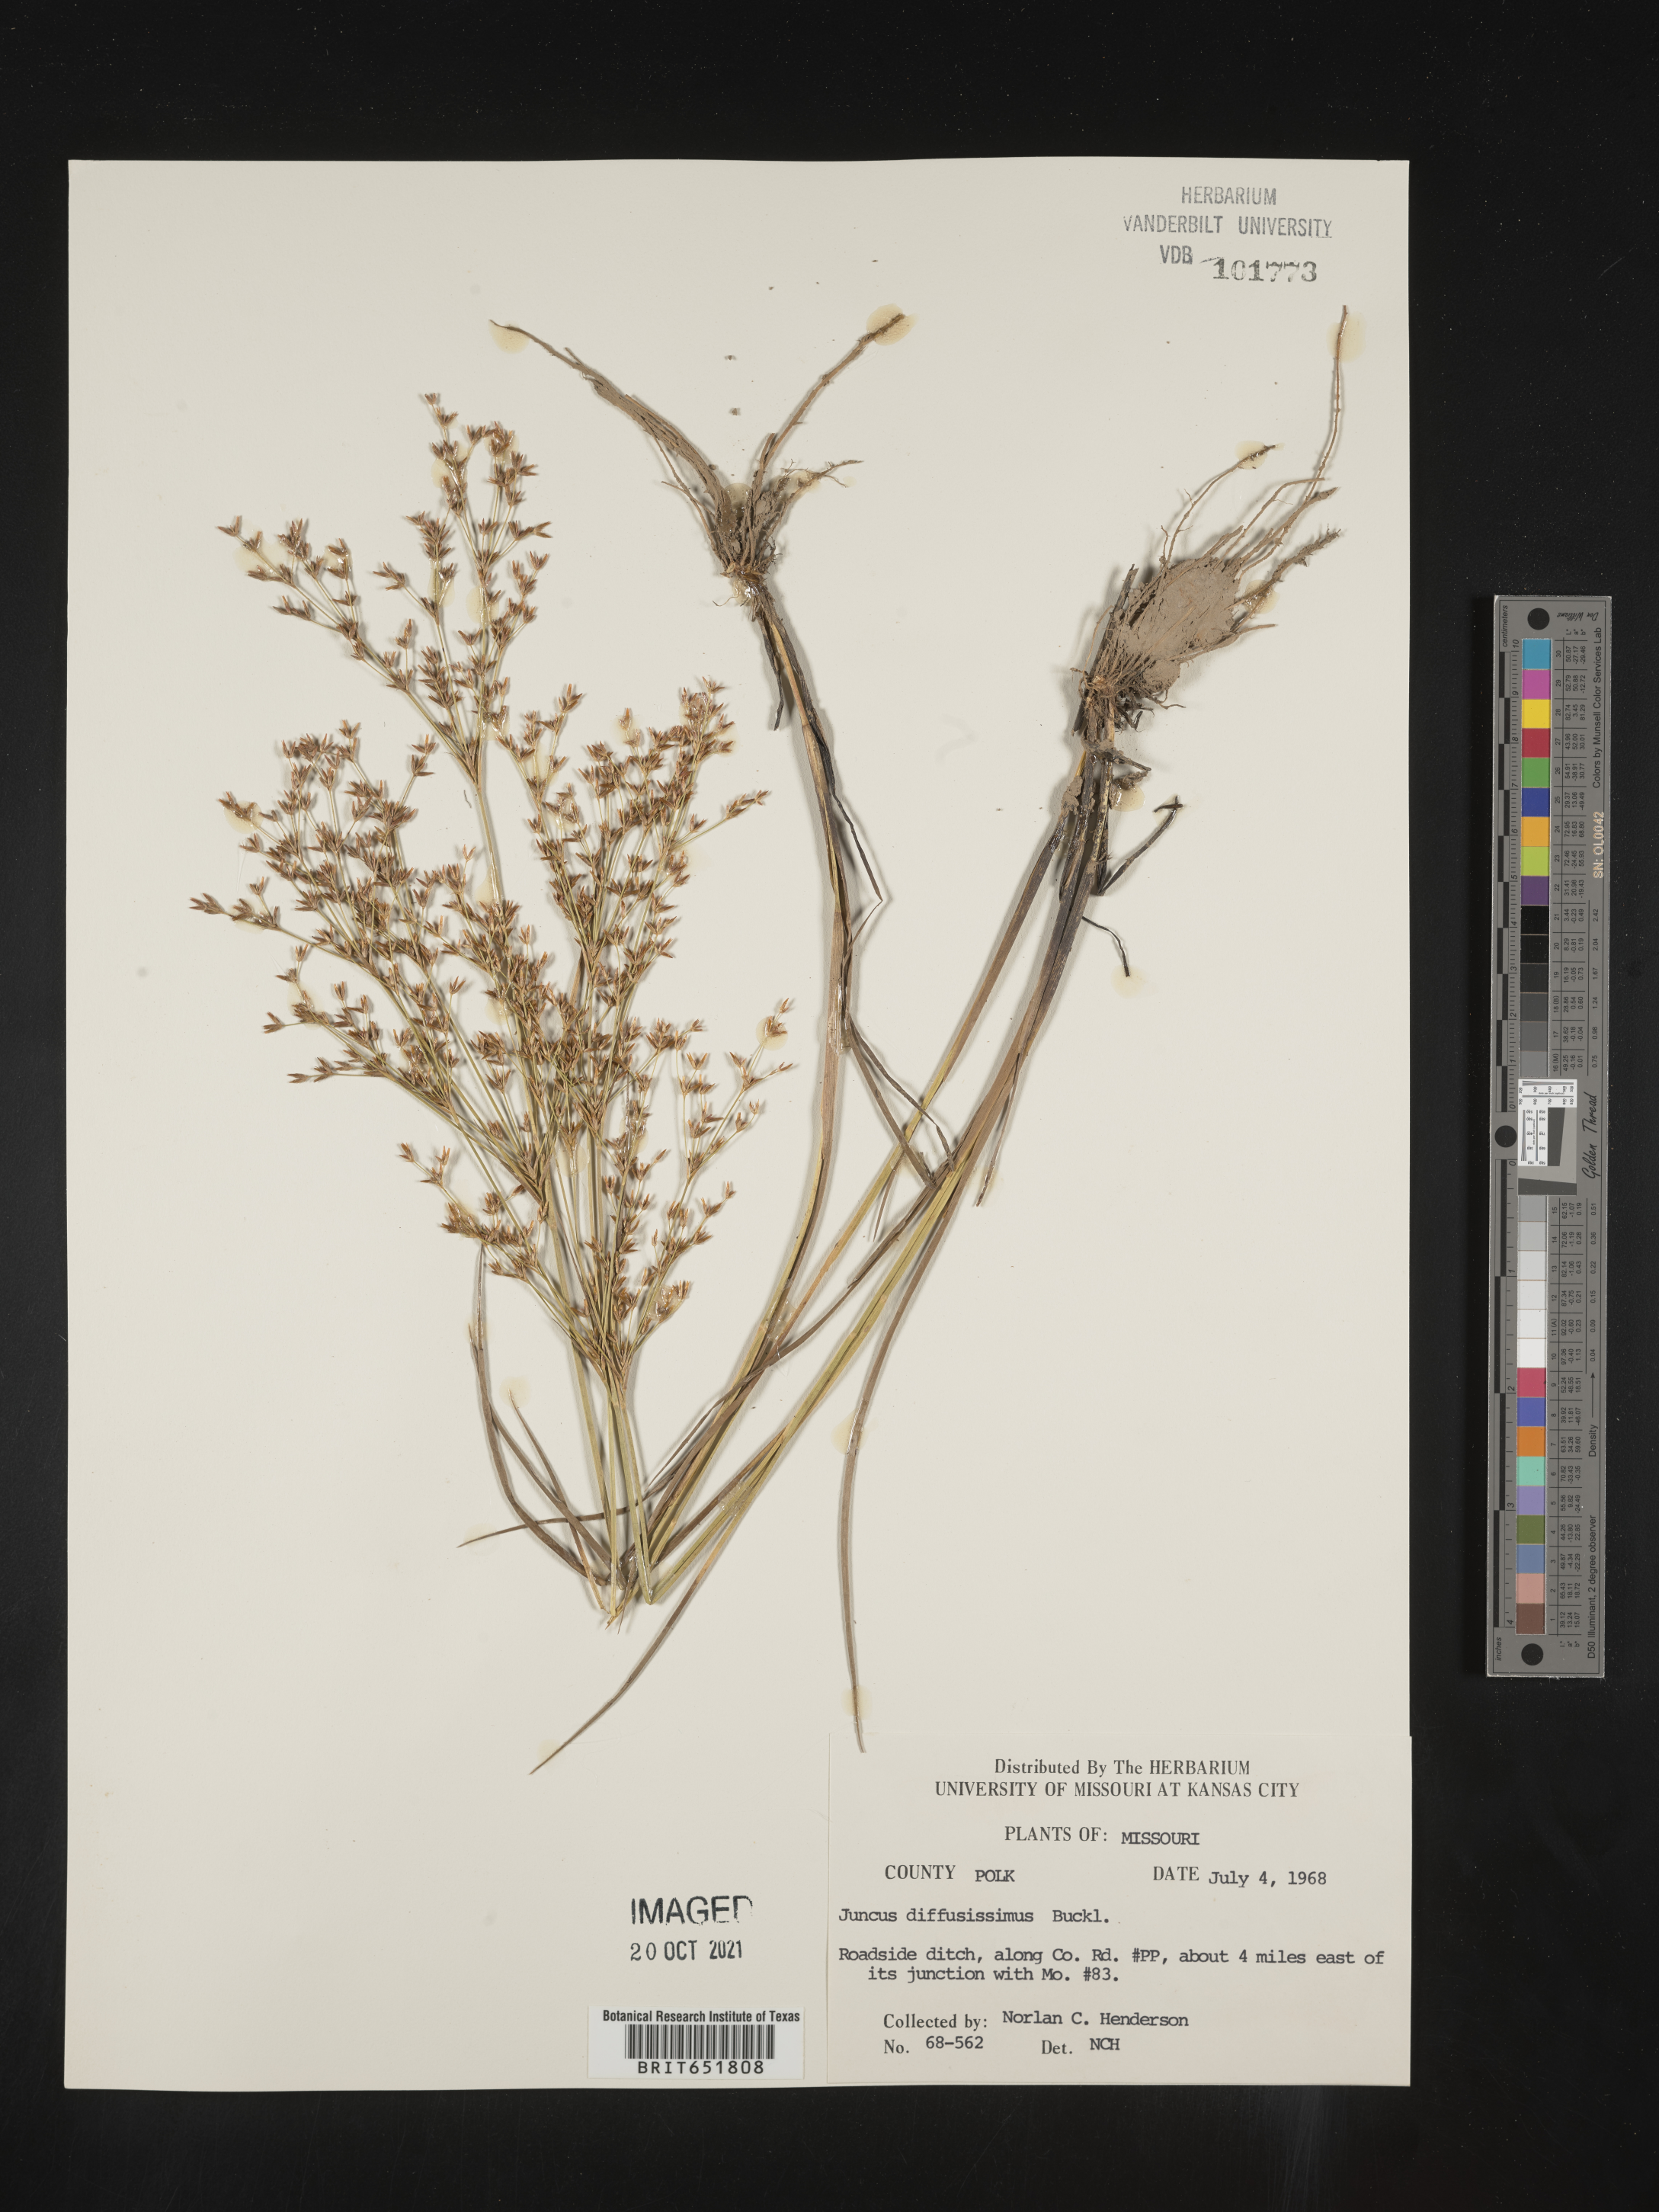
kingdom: Plantae
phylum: Tracheophyta
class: Liliopsida
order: Poales
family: Juncaceae
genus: Juncus
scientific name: Juncus diffusissimus
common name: Slimpod rush
